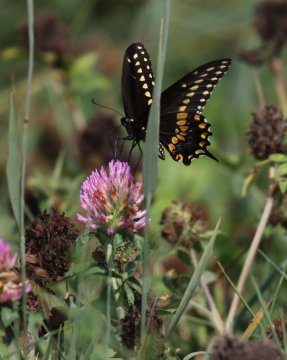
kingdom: Animalia
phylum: Arthropoda
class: Insecta
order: Lepidoptera
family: Papilionidae
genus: Papilio
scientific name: Papilio polyxenes
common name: Black Swallowtail
